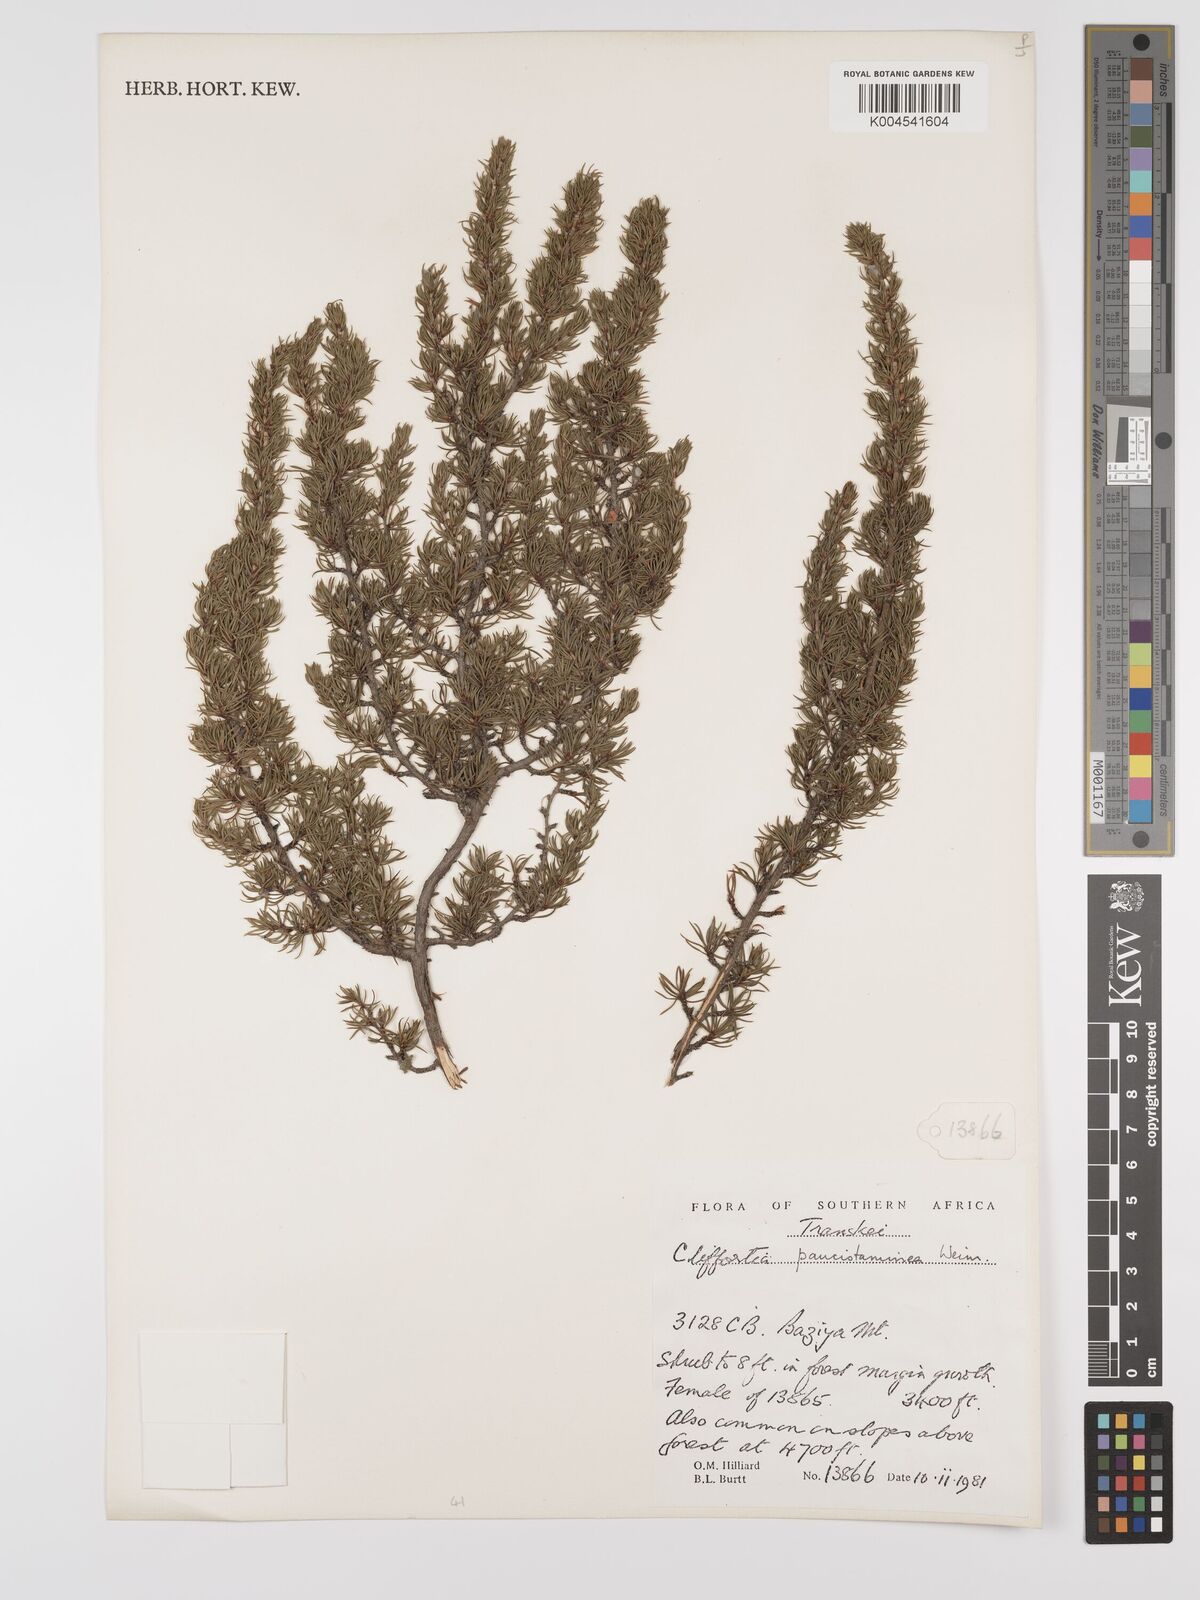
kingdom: Plantae
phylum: Tracheophyta
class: Magnoliopsida
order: Rosales
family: Rosaceae
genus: Cliffortia
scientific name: Cliffortia paucistaminea
